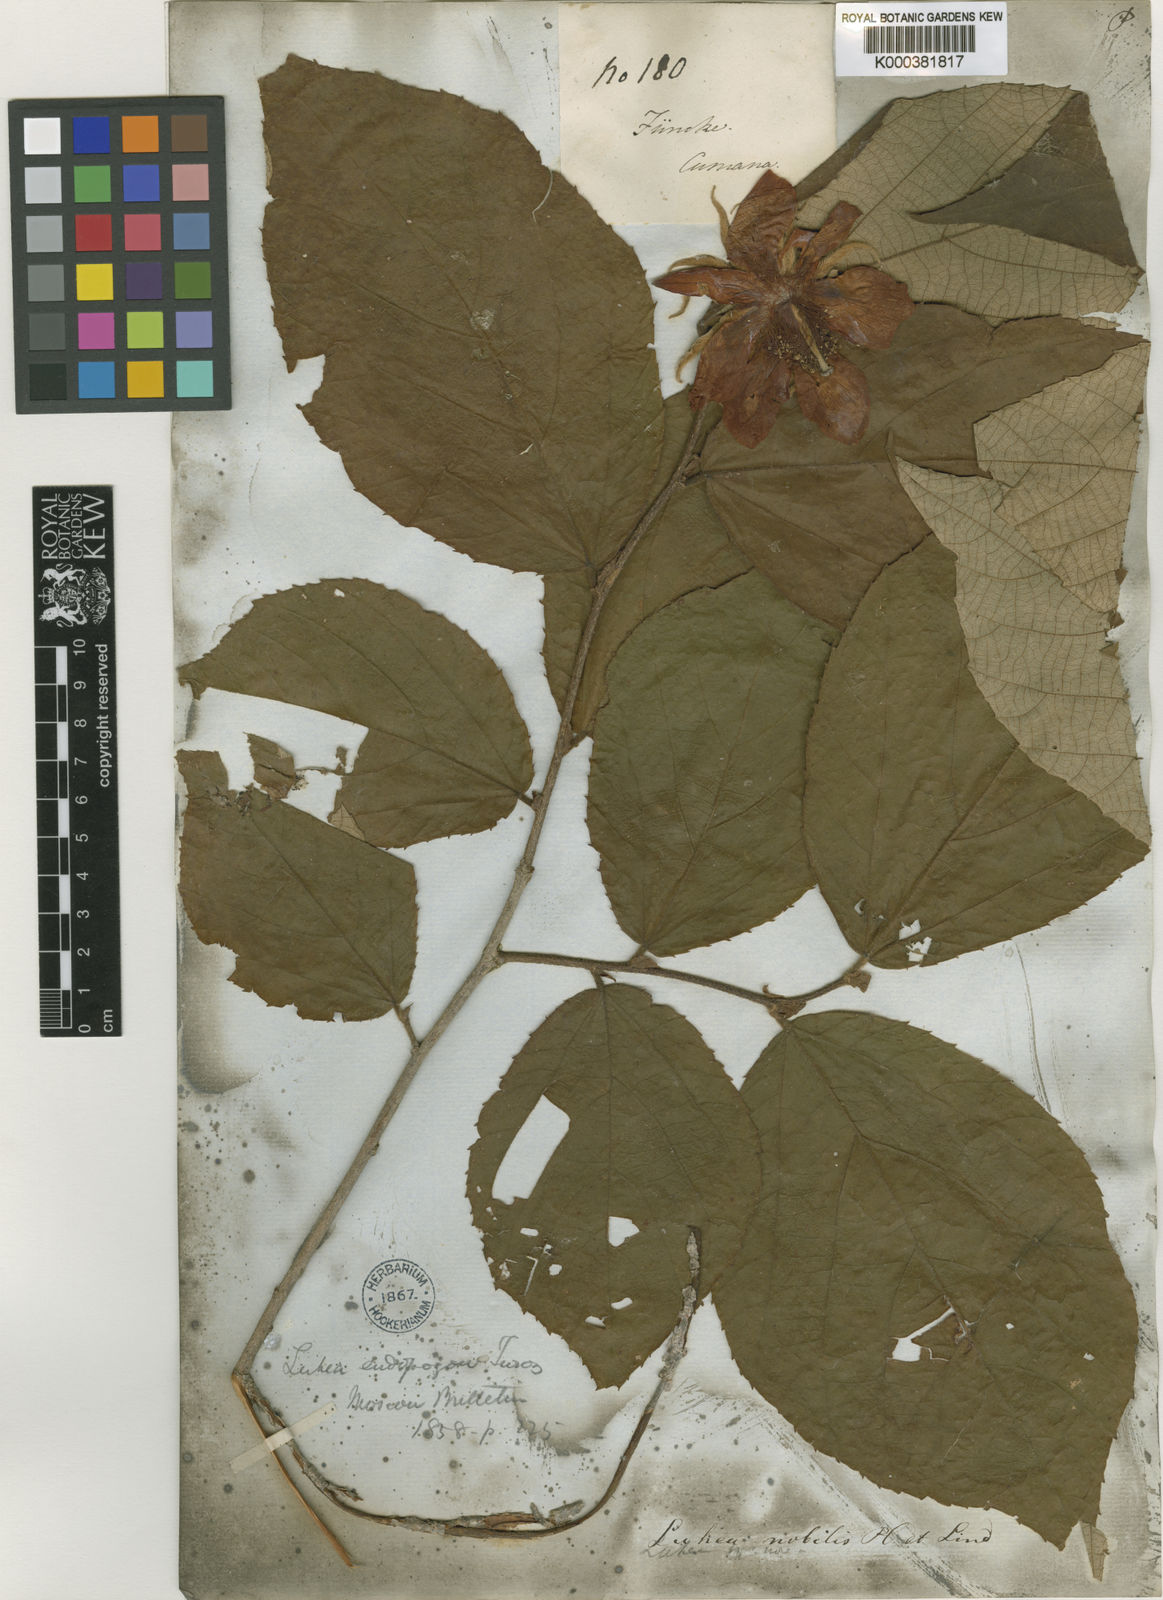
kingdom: Plantae
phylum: Tracheophyta
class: Magnoliopsida
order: Malvales
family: Malvaceae
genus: Luehea
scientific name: Luehea candida
